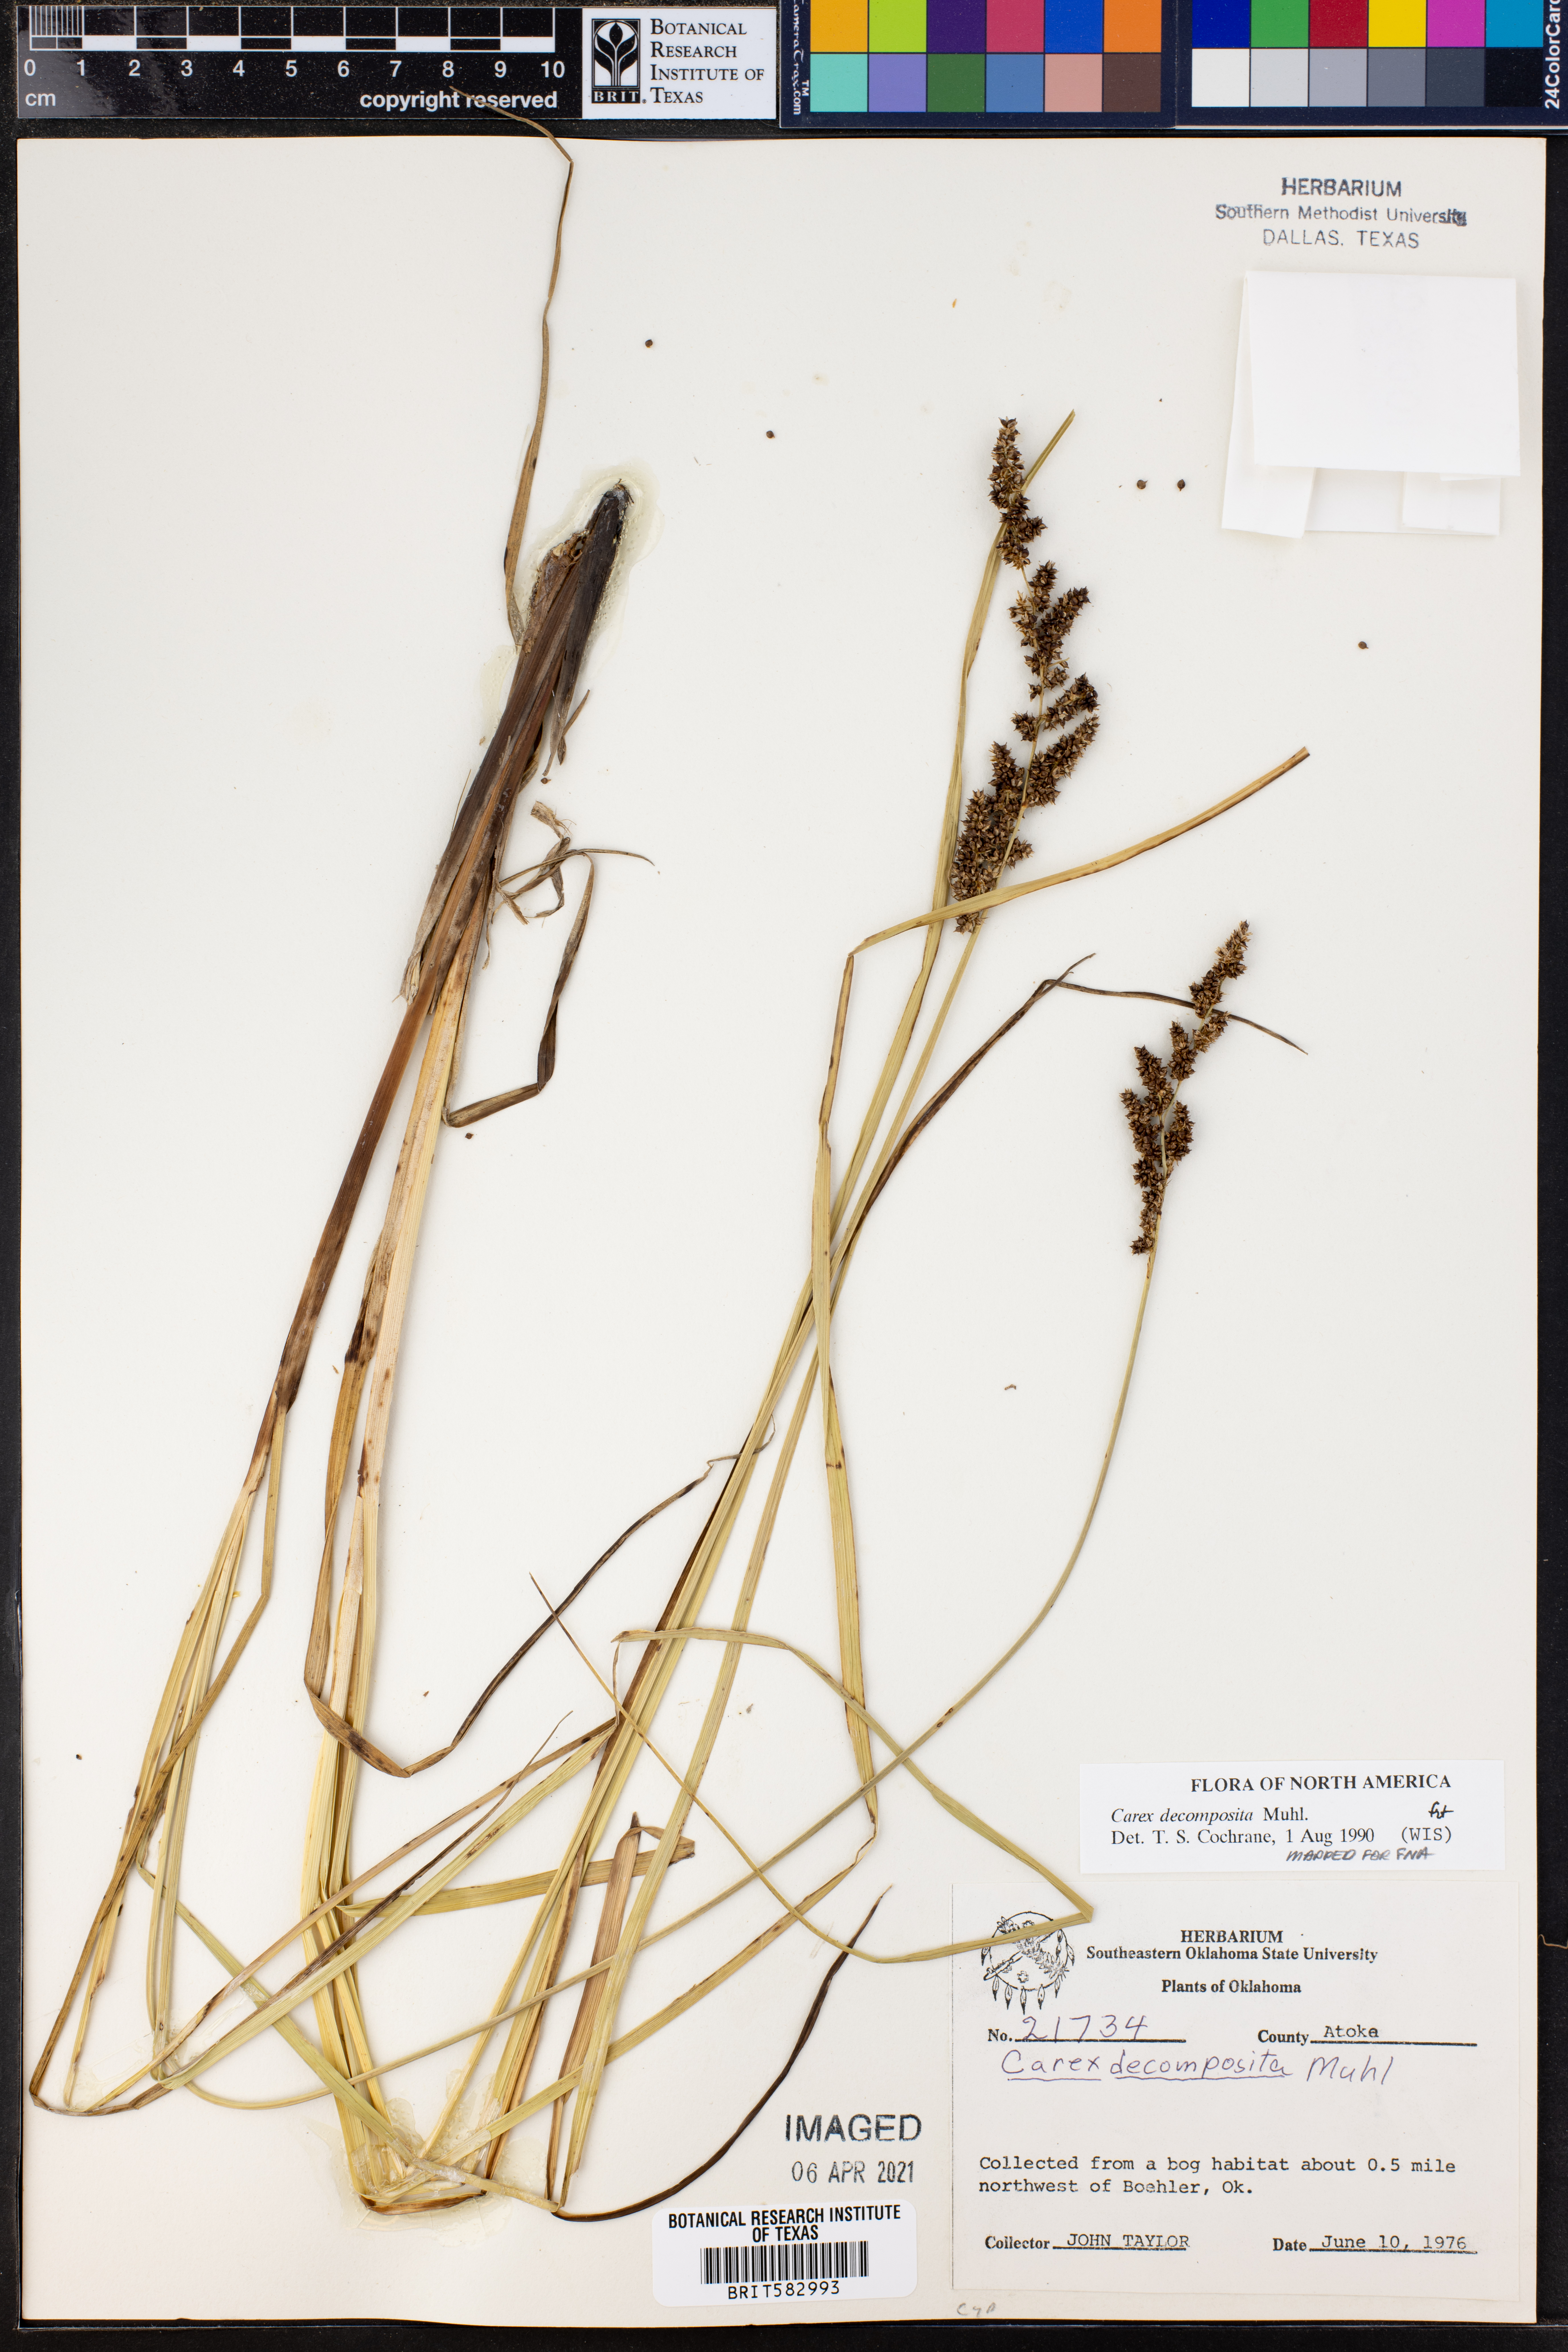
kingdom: Plantae
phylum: Tracheophyta
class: Liliopsida
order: Poales
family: Cyperaceae
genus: Carex
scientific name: Carex decomposita
